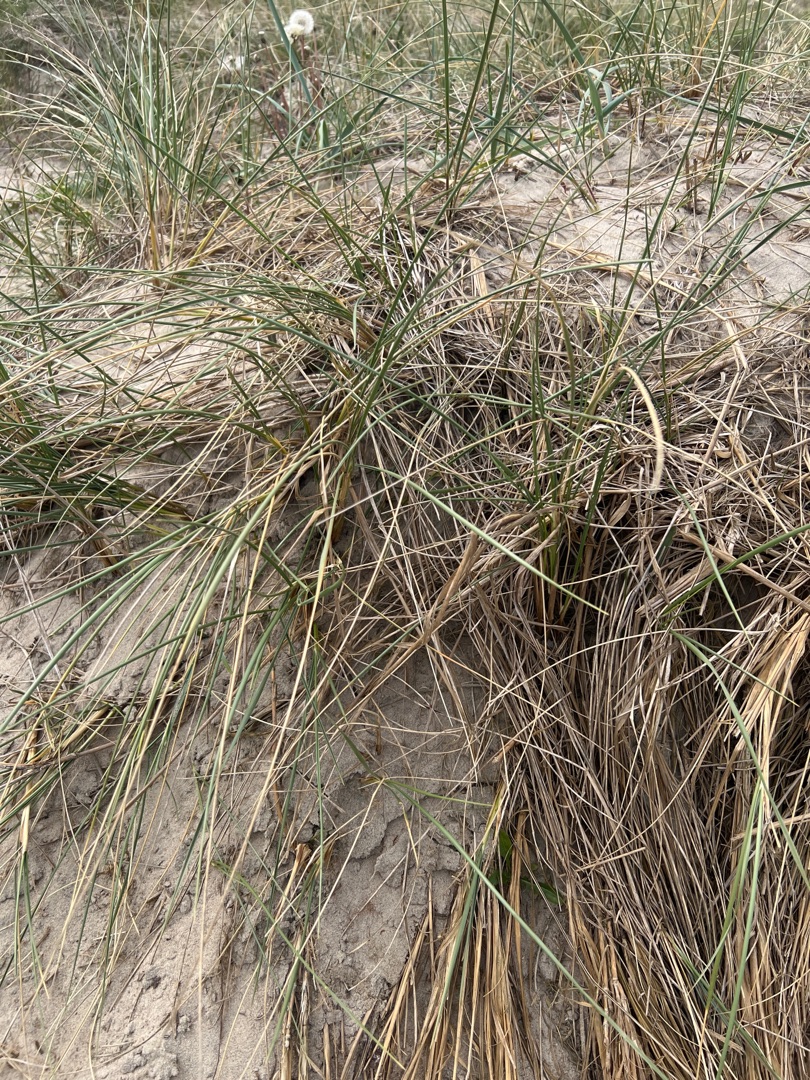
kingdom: Plantae
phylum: Tracheophyta
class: Liliopsida
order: Poales
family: Poaceae
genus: Calamagrostis
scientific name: Calamagrostis arenaria
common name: Sand-hjælme
